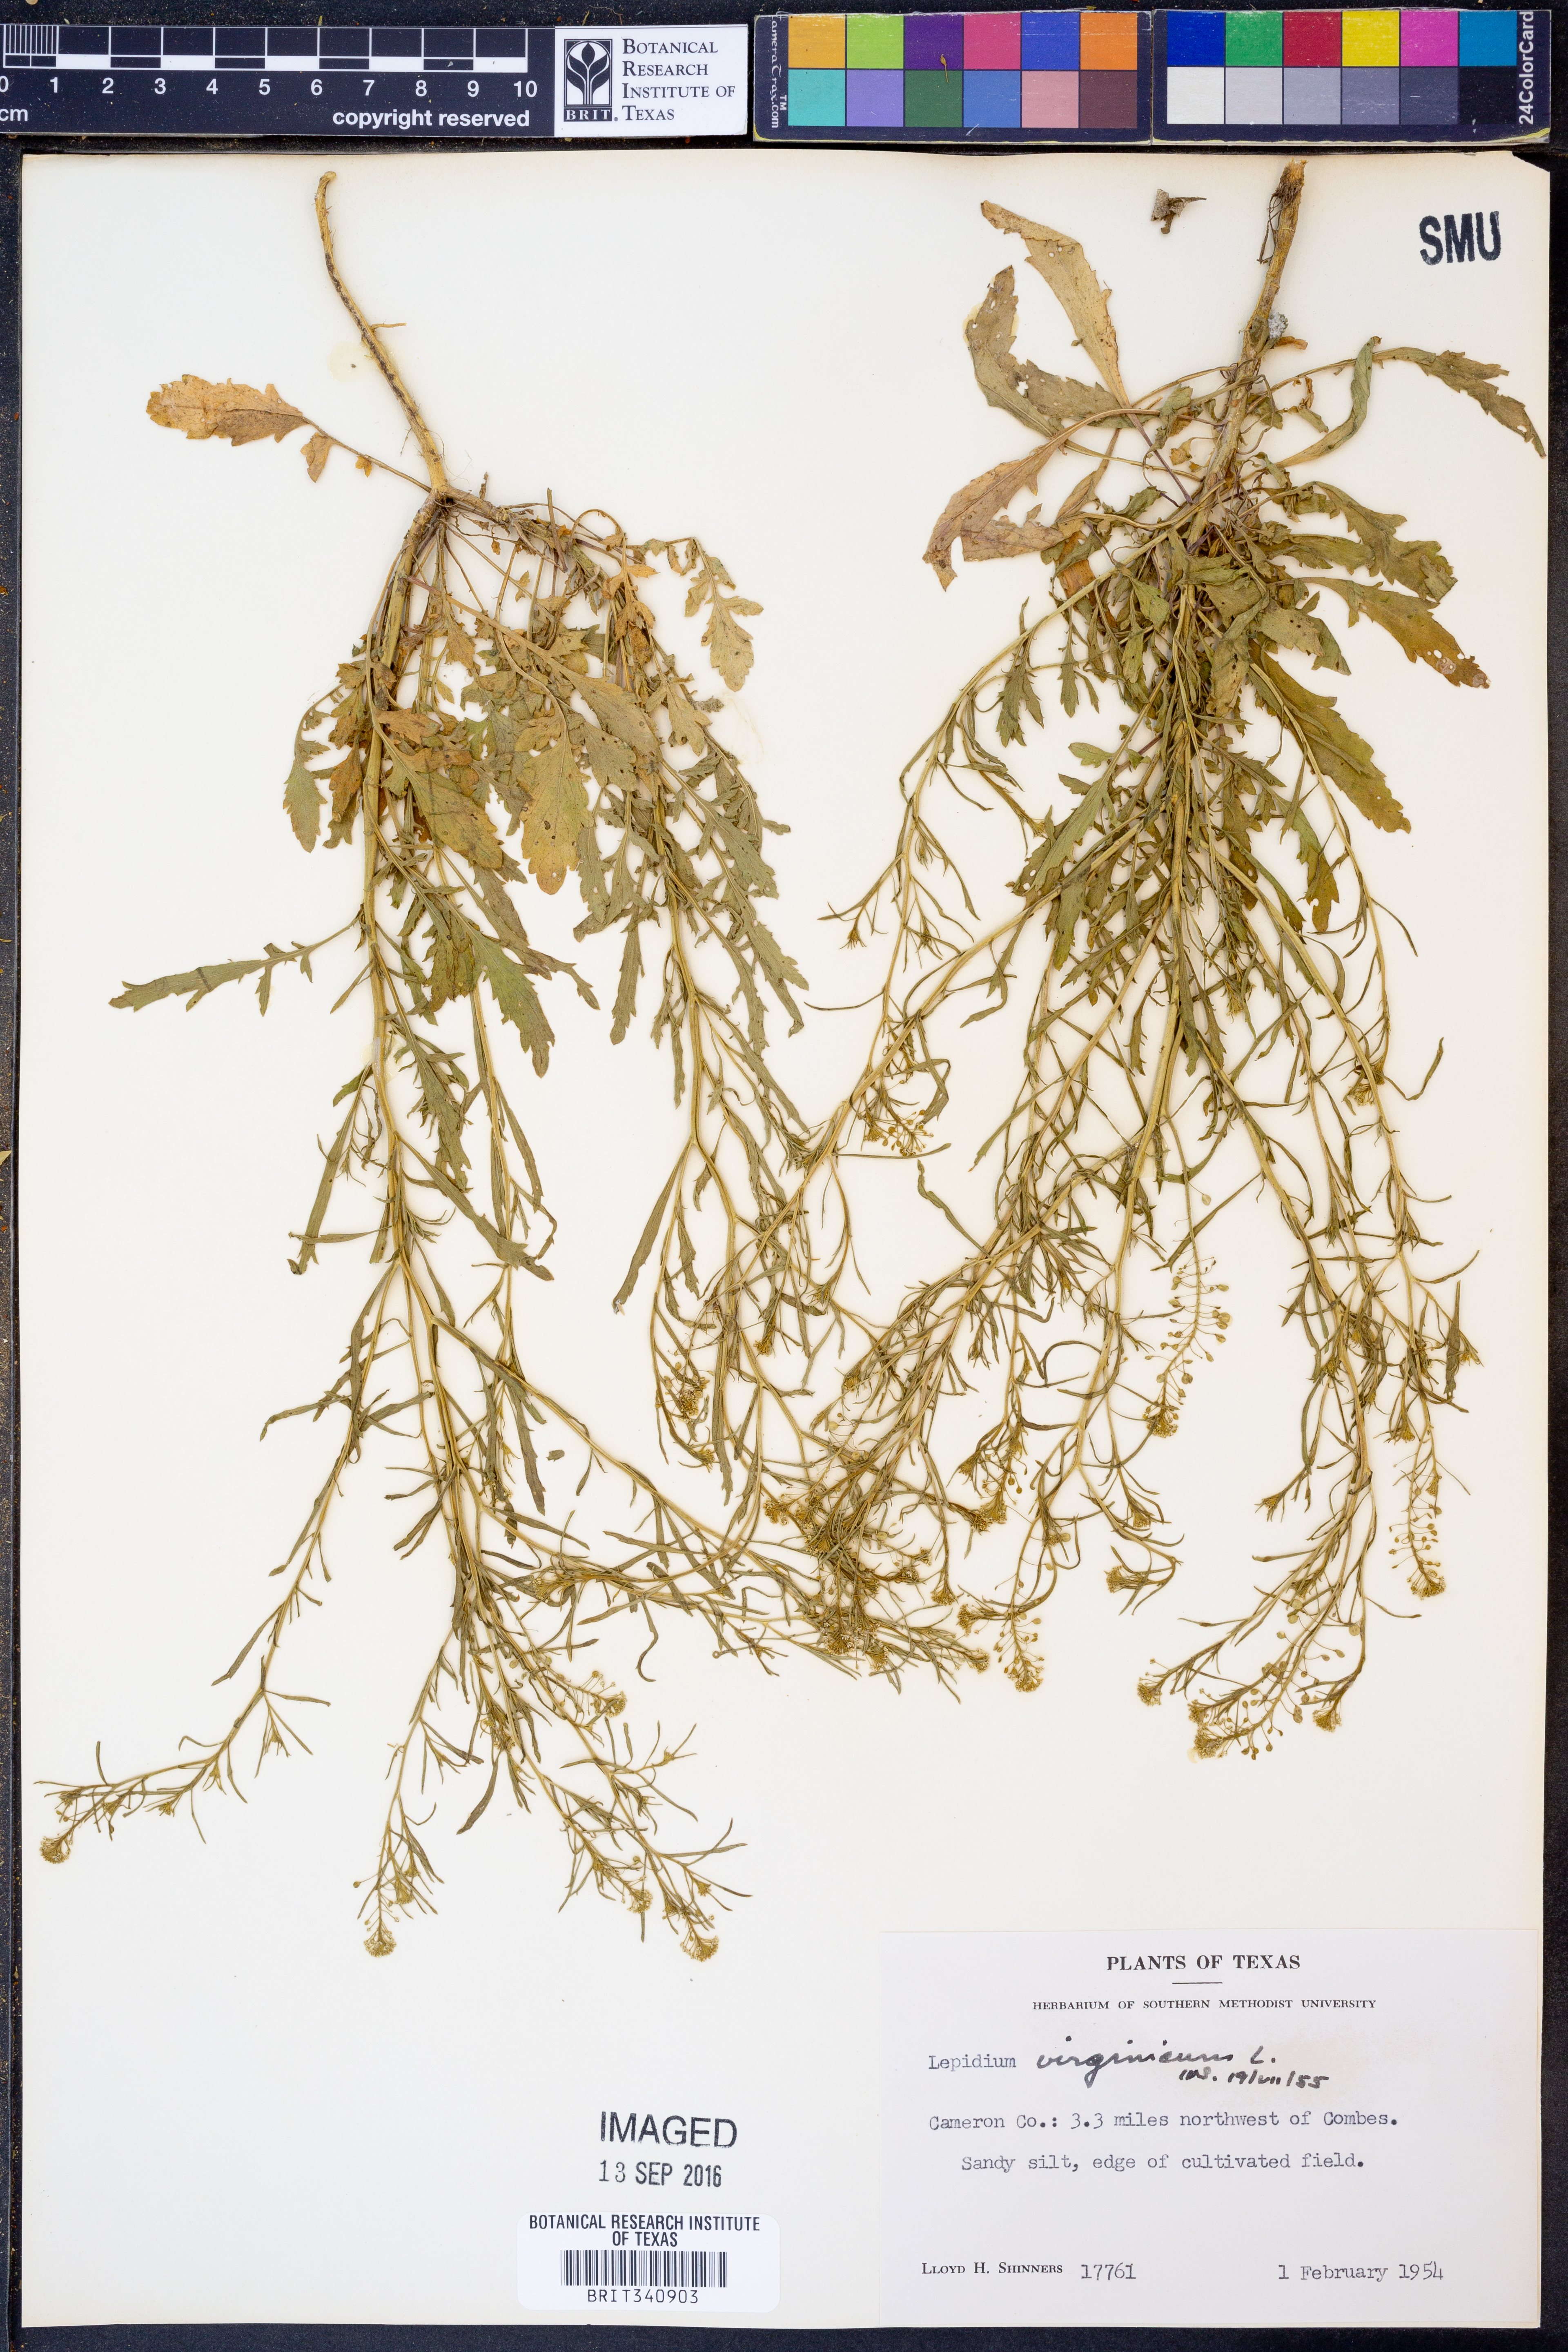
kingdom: Plantae
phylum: Tracheophyta
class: Magnoliopsida
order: Brassicales
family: Brassicaceae
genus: Lepidium
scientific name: Lepidium virginicum
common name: Least pepperwort
